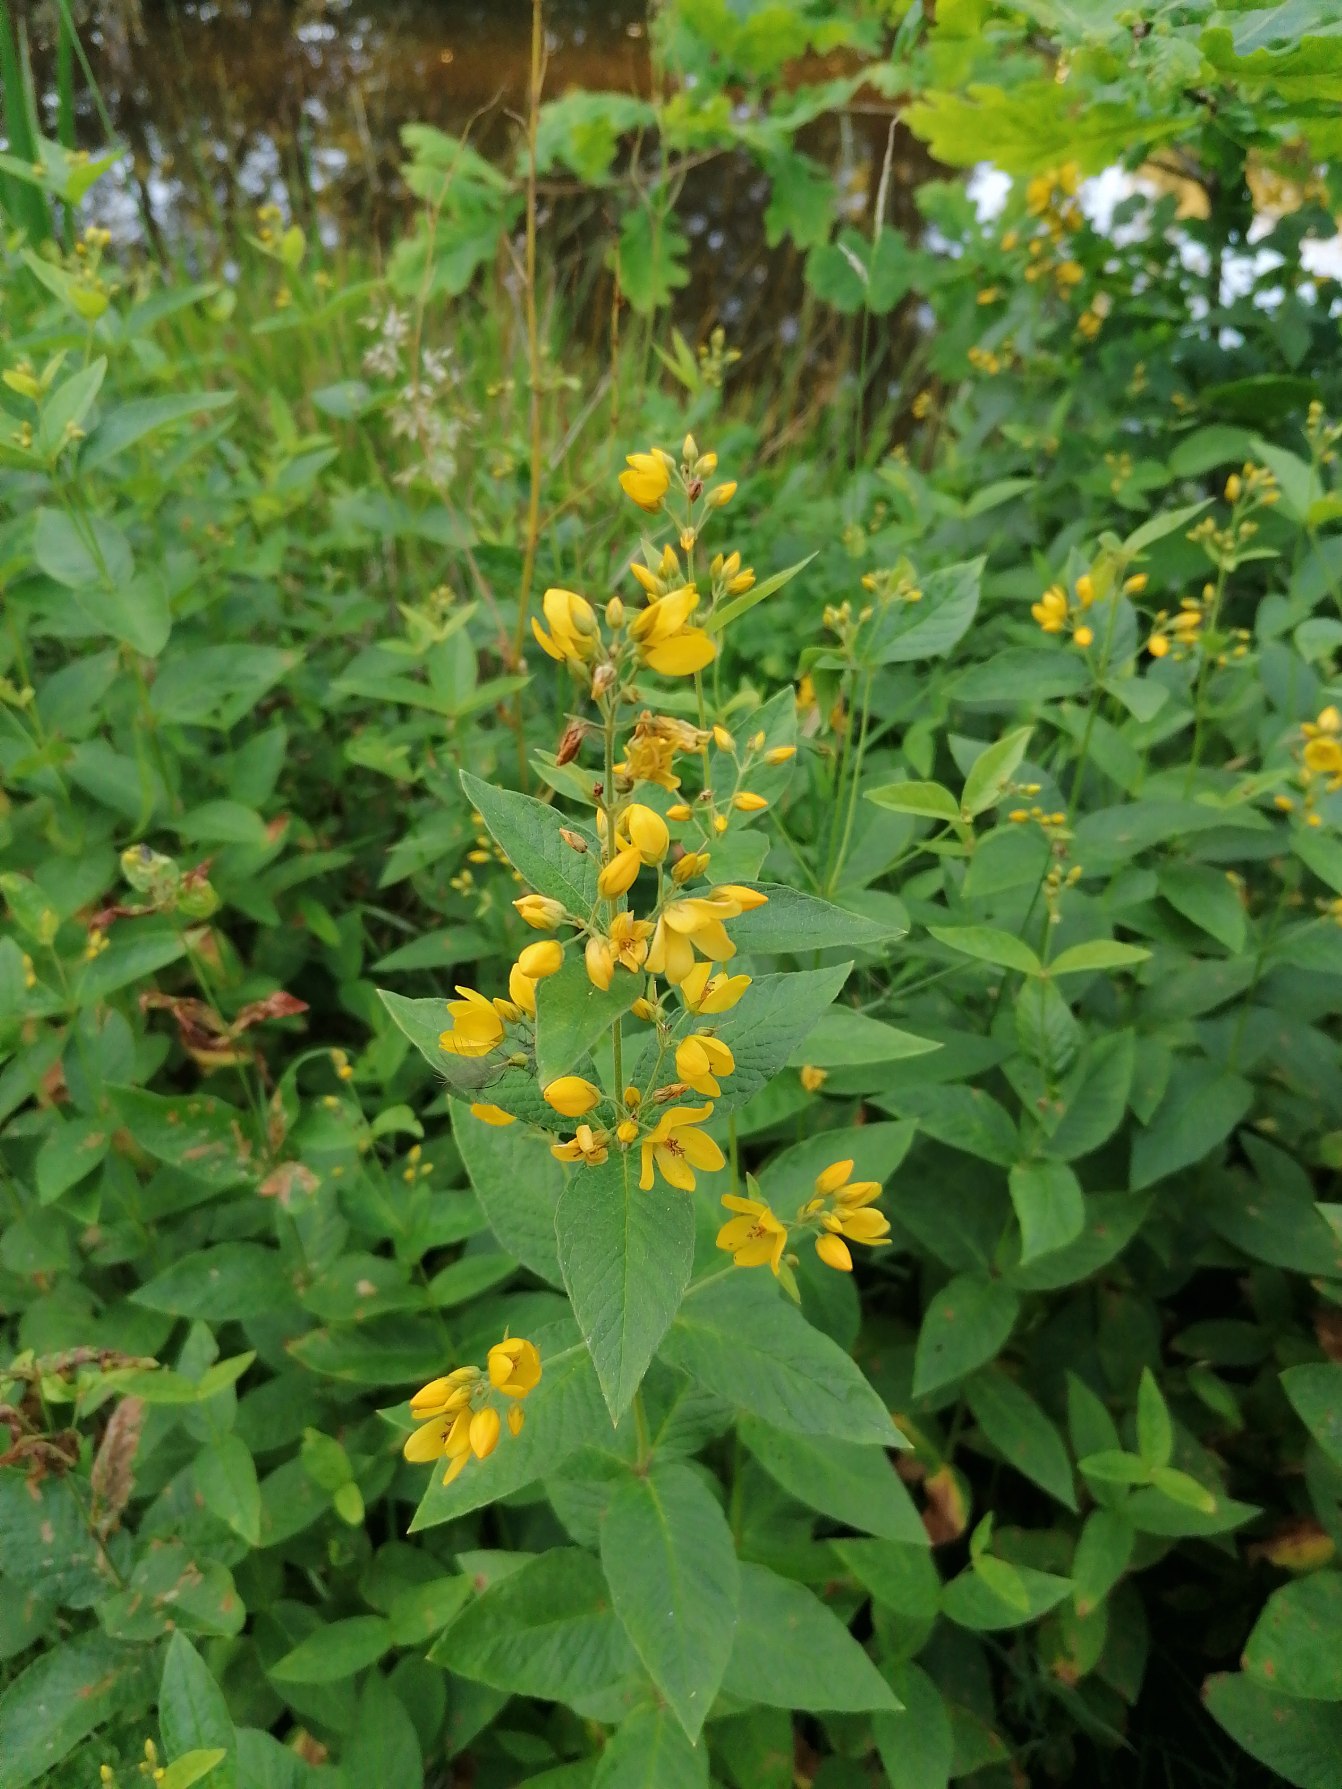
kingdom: Plantae
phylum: Tracheophyta
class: Magnoliopsida
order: Ericales
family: Primulaceae
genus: Lysimachia
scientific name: Lysimachia vulgaris
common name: Almindelig fredløs
